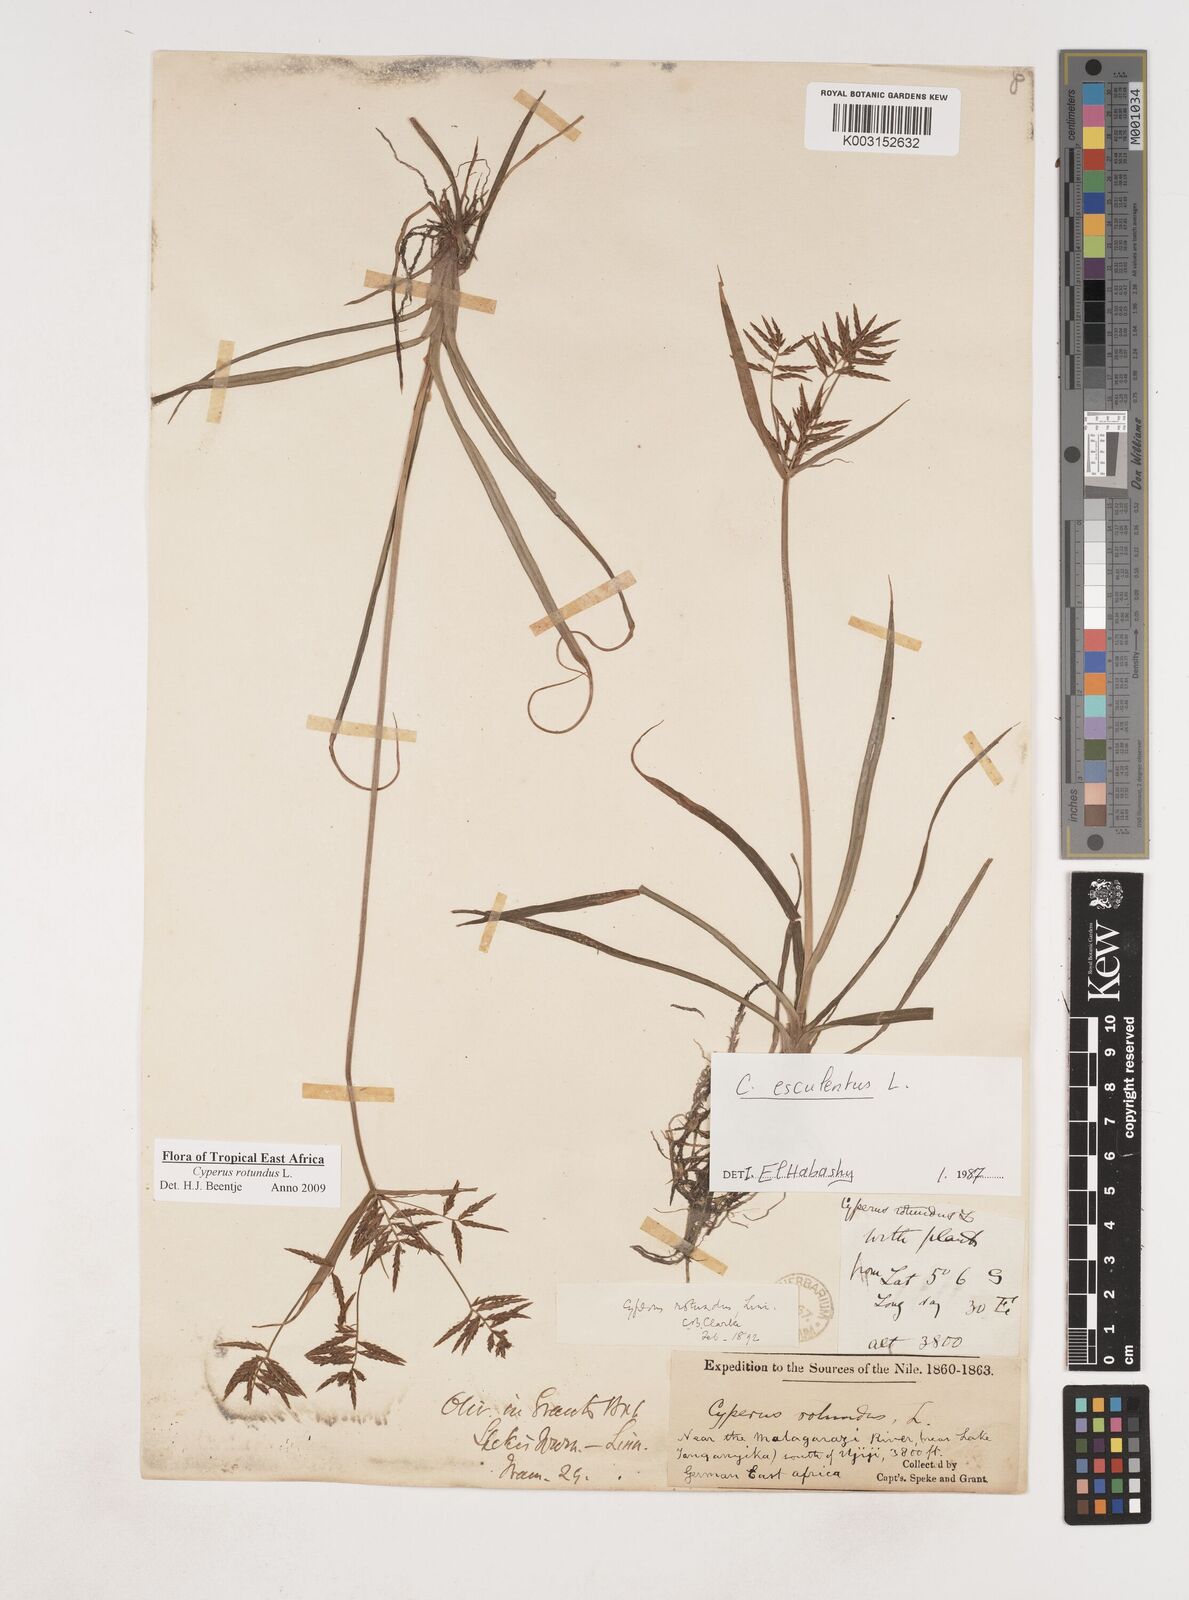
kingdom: Plantae
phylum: Tracheophyta
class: Liliopsida
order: Poales
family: Cyperaceae
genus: Cyperus
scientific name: Cyperus rotundus
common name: Nutgrass
